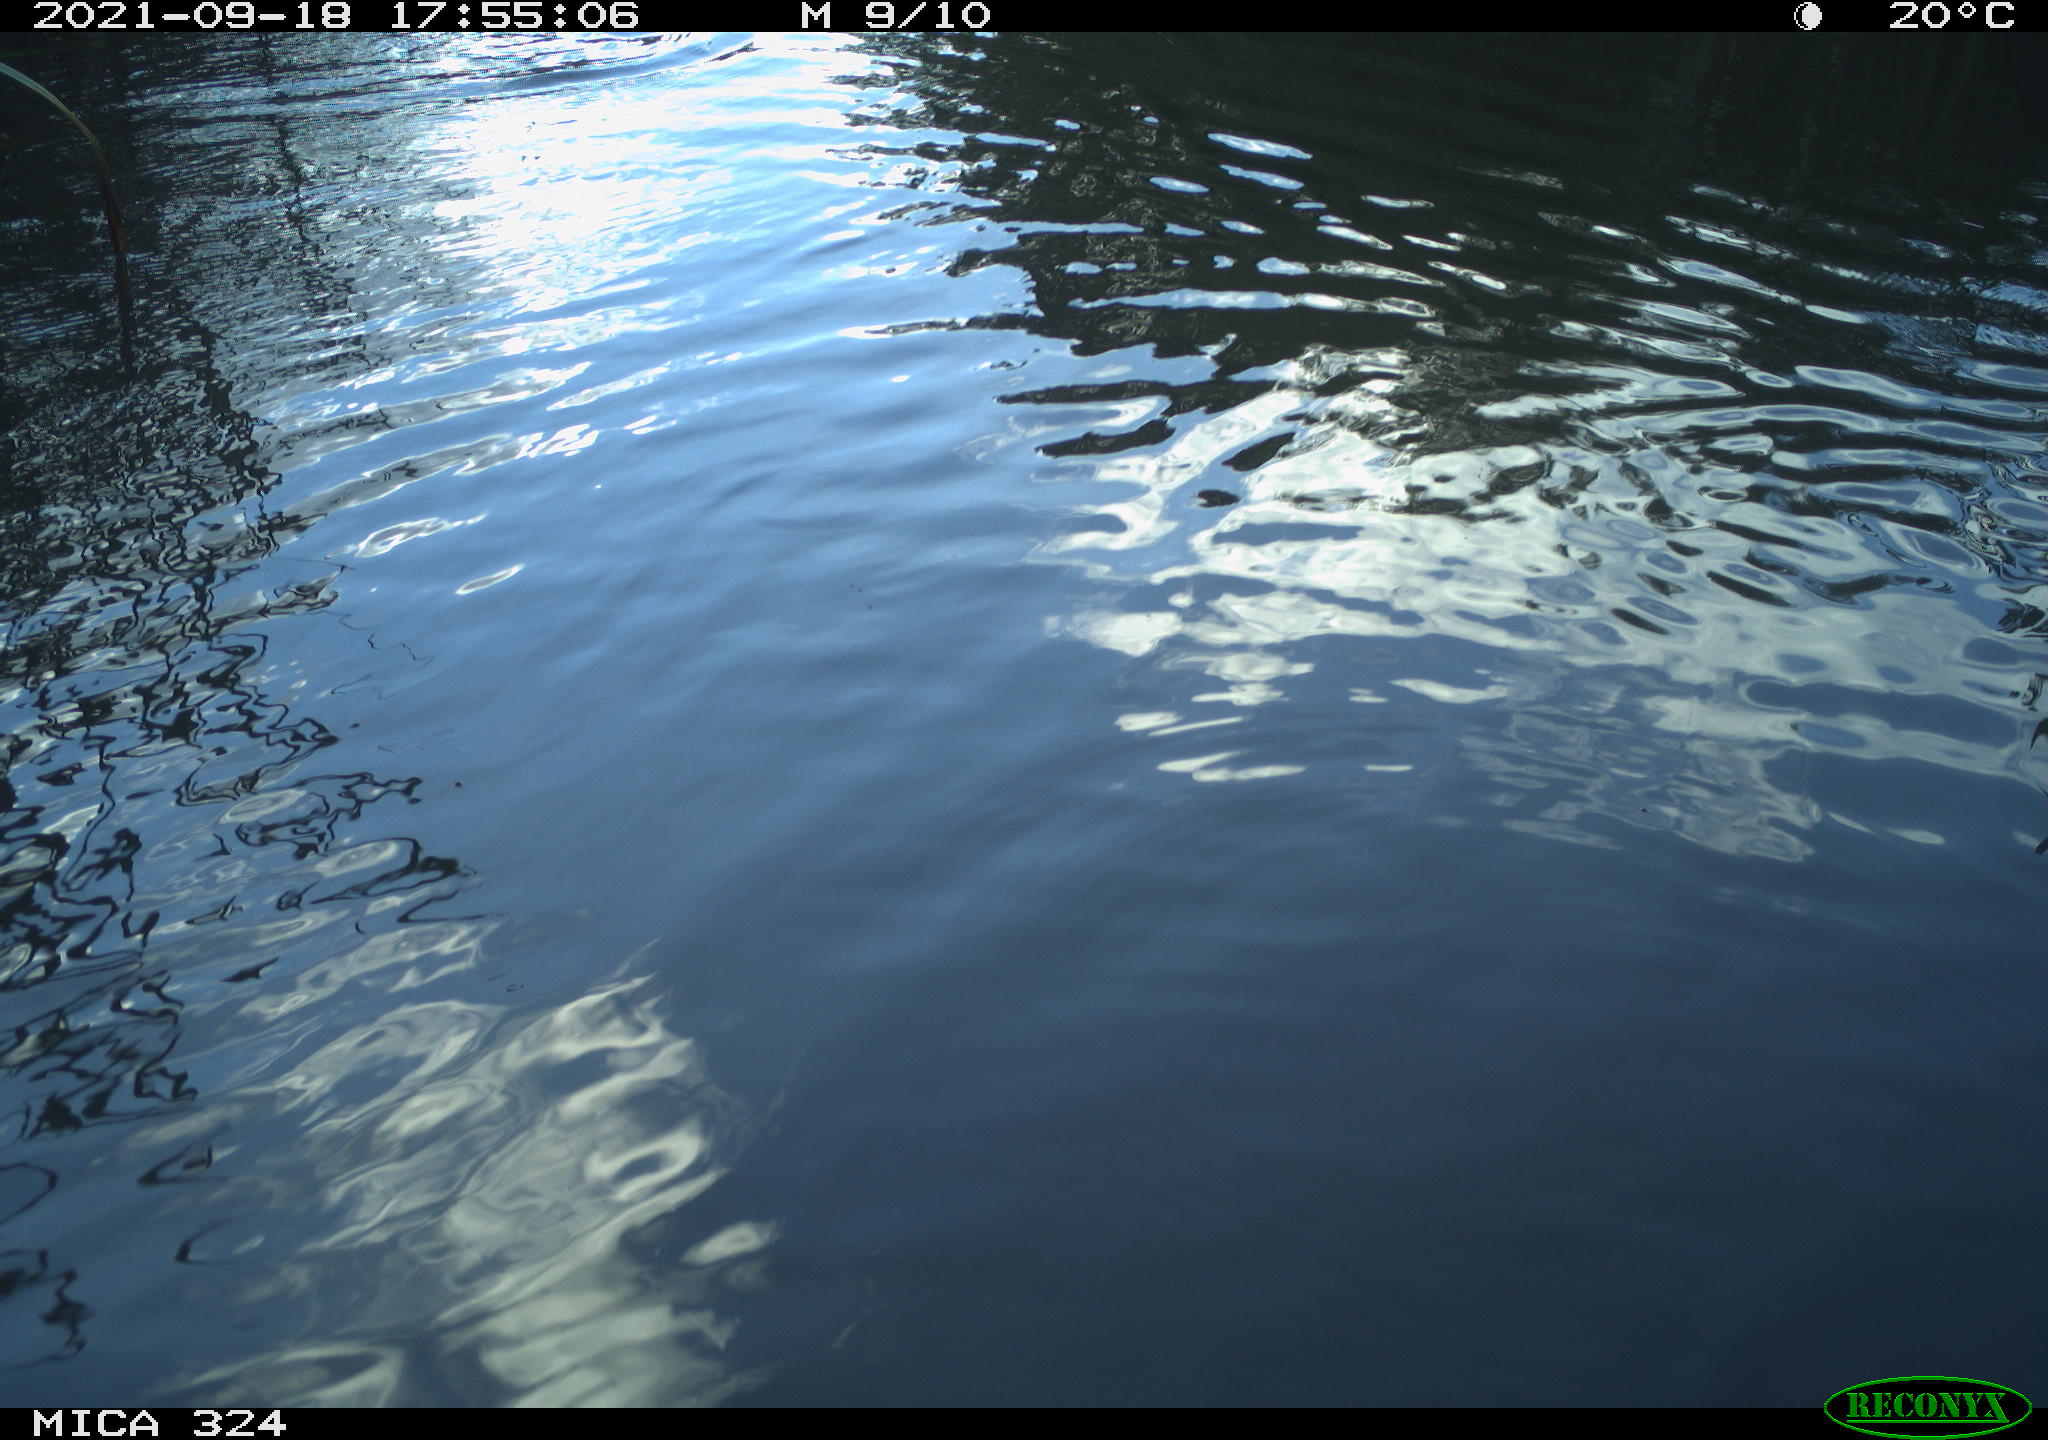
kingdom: Animalia
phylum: Chordata
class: Mammalia
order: Rodentia
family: Cricetidae
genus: Ondatra
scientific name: Ondatra zibethicus
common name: Muskrat
